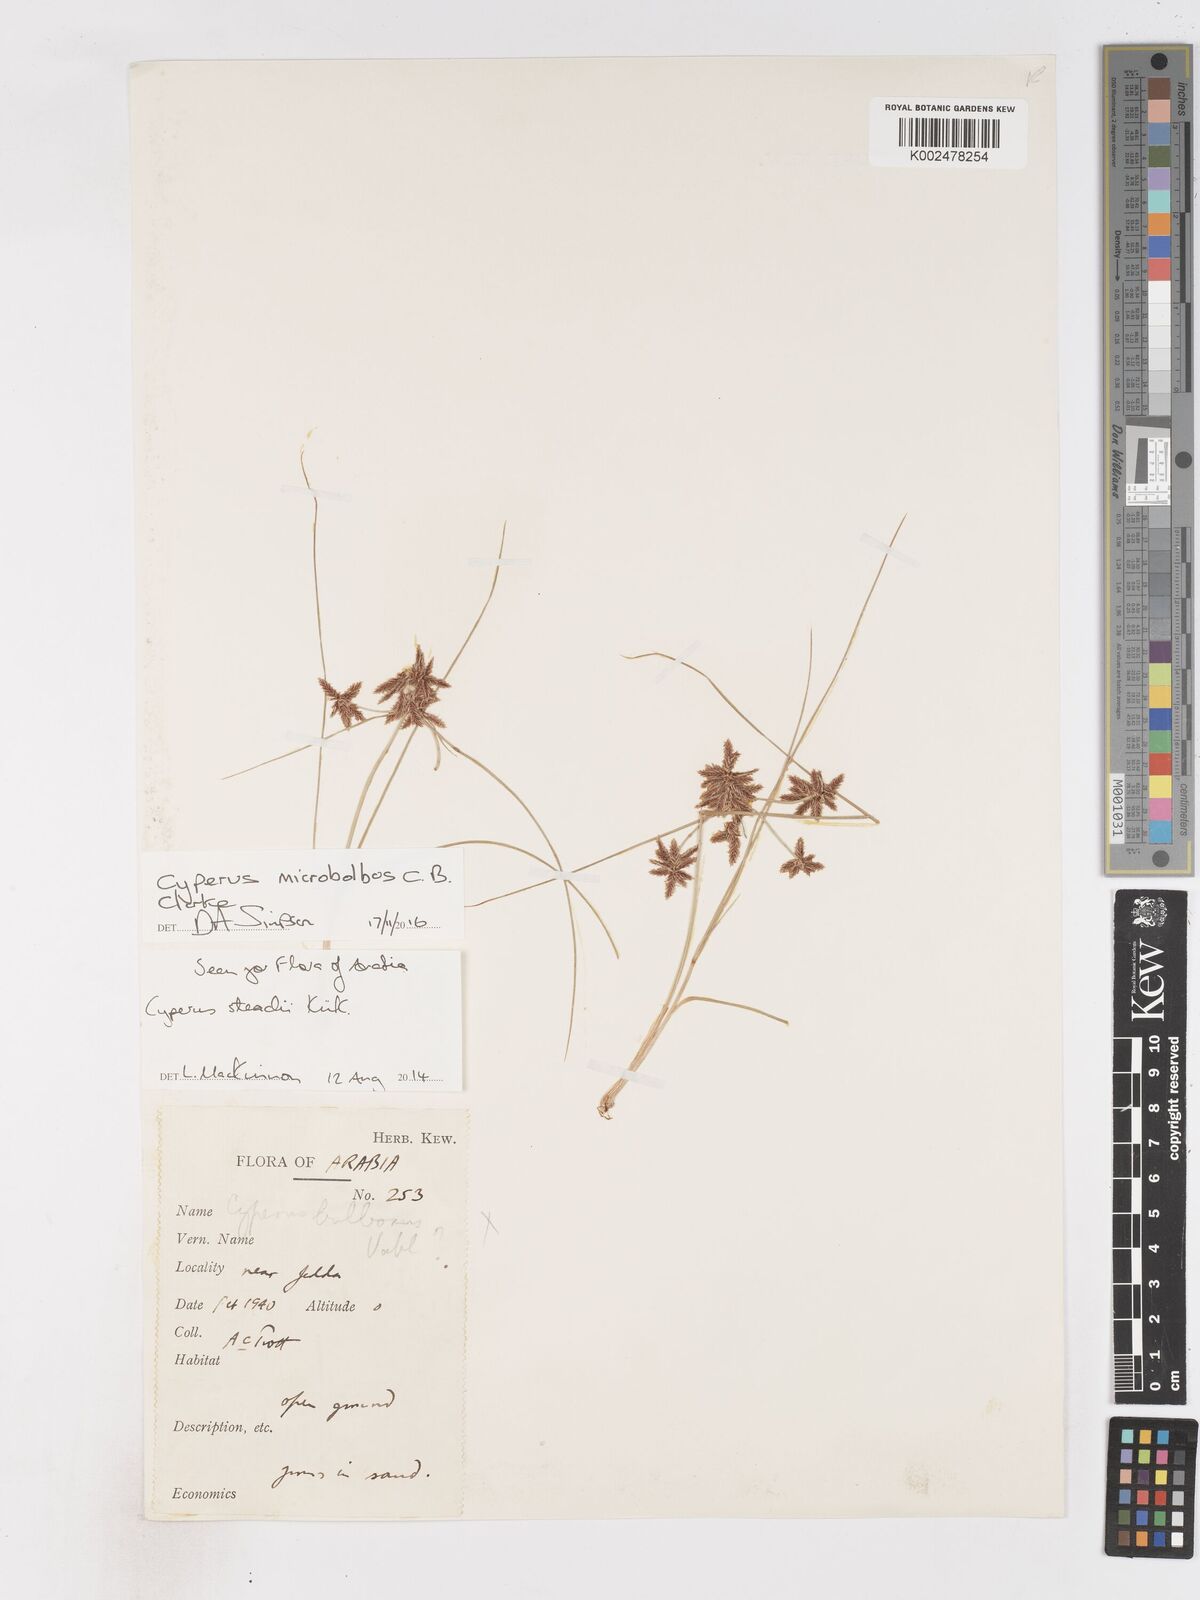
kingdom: Plantae
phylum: Tracheophyta
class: Liliopsida
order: Poales
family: Cyperaceae
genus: Cyperus
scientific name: Cyperus microbolbos
